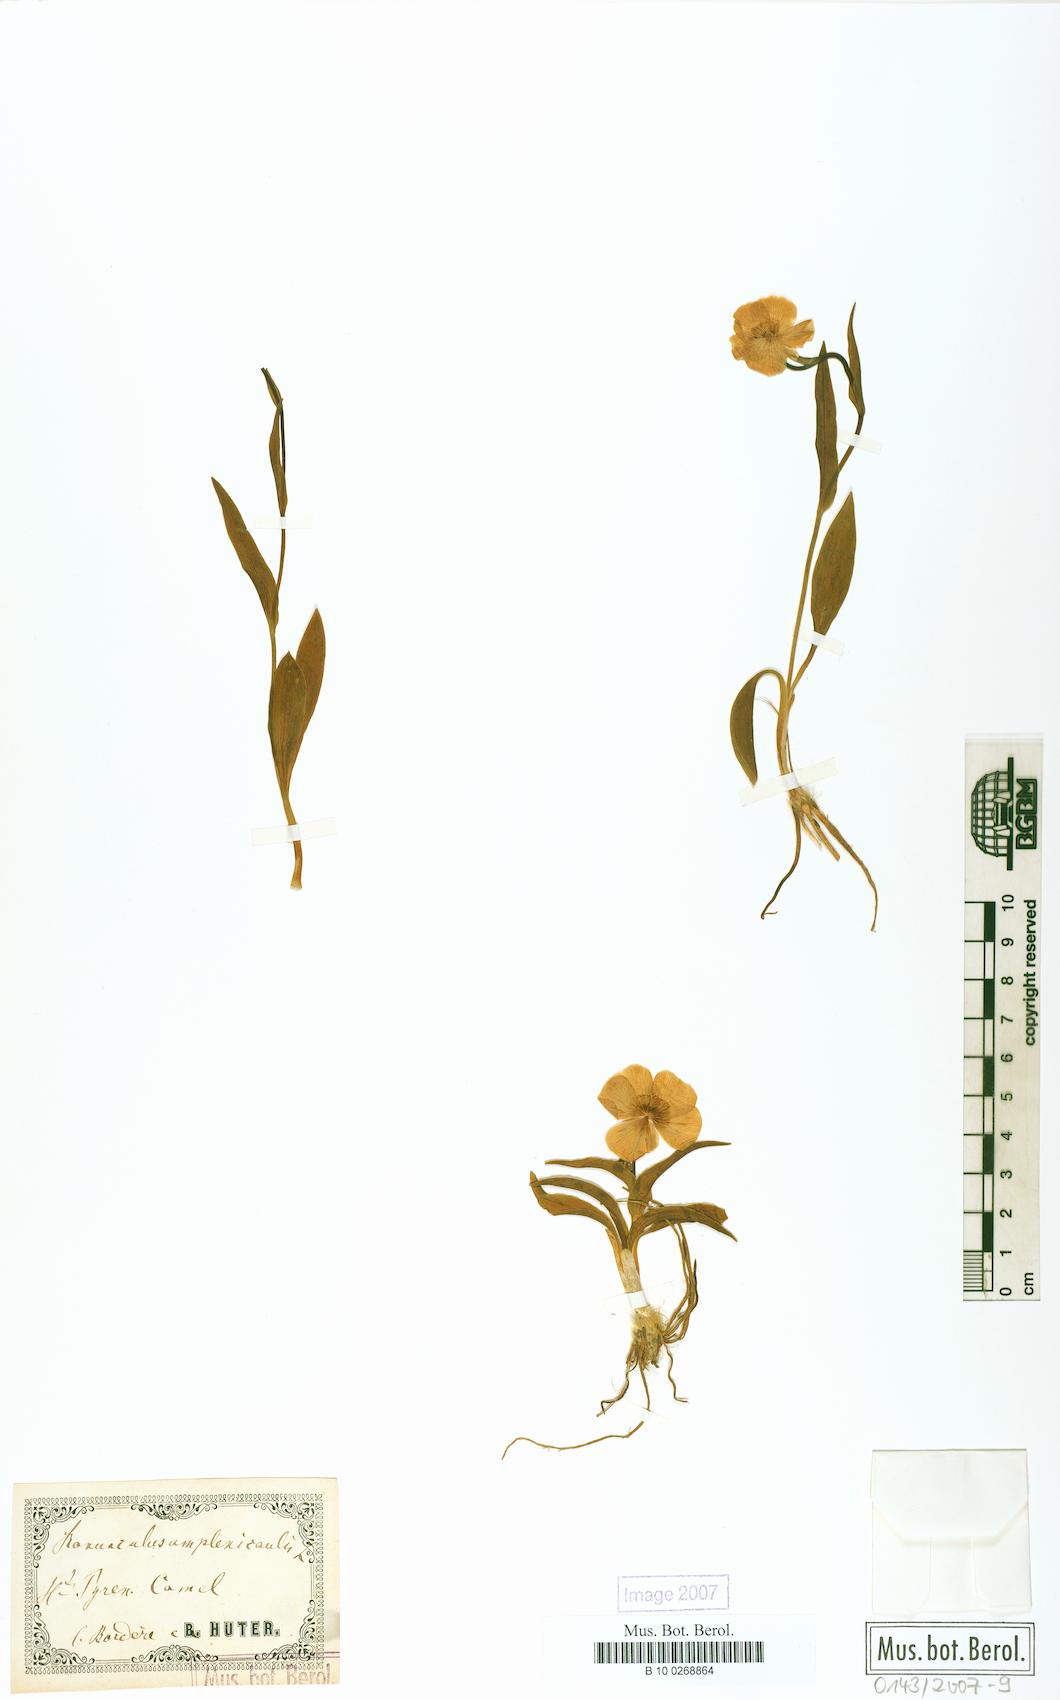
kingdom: Plantae
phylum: Tracheophyta
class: Magnoliopsida
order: Ranunculales
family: Ranunculaceae
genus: Ranunculus
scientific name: Ranunculus amplexicaulis
